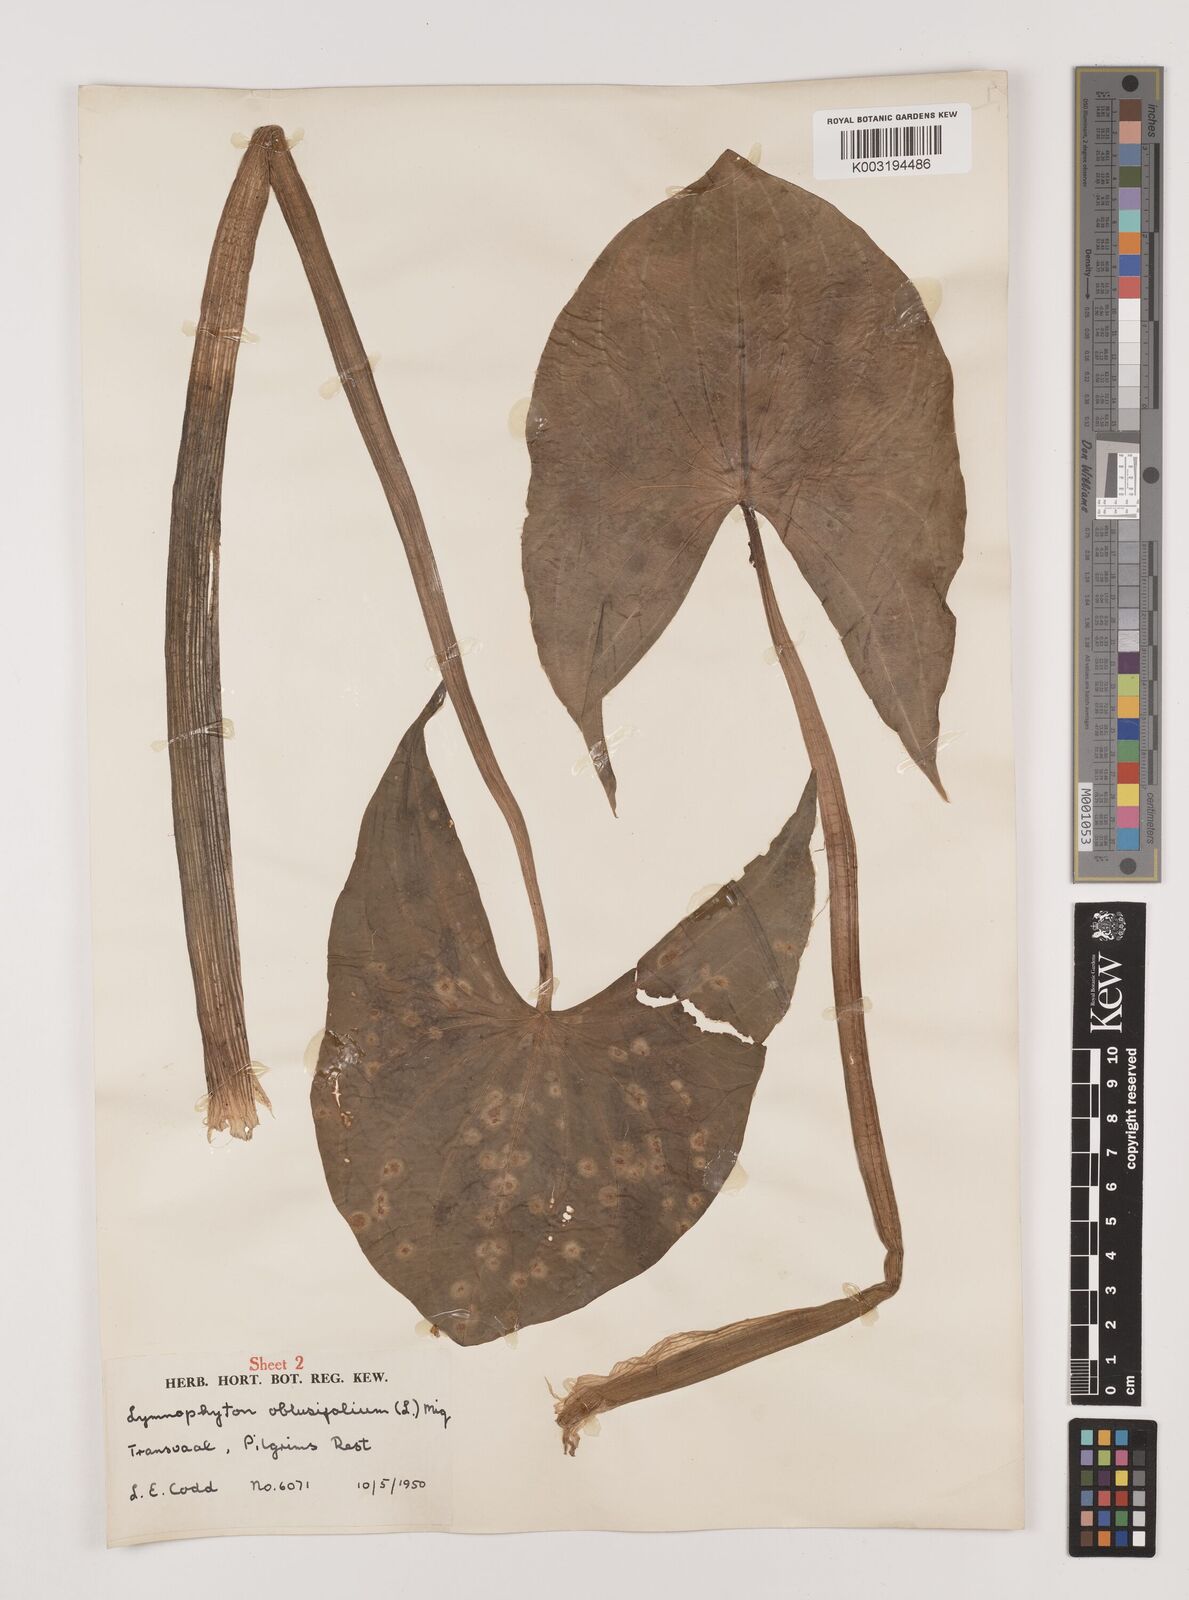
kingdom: Plantae
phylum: Tracheophyta
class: Liliopsida
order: Alismatales
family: Alismataceae
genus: Limnophyton
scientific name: Limnophyton obtusifolium
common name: Arrow head
